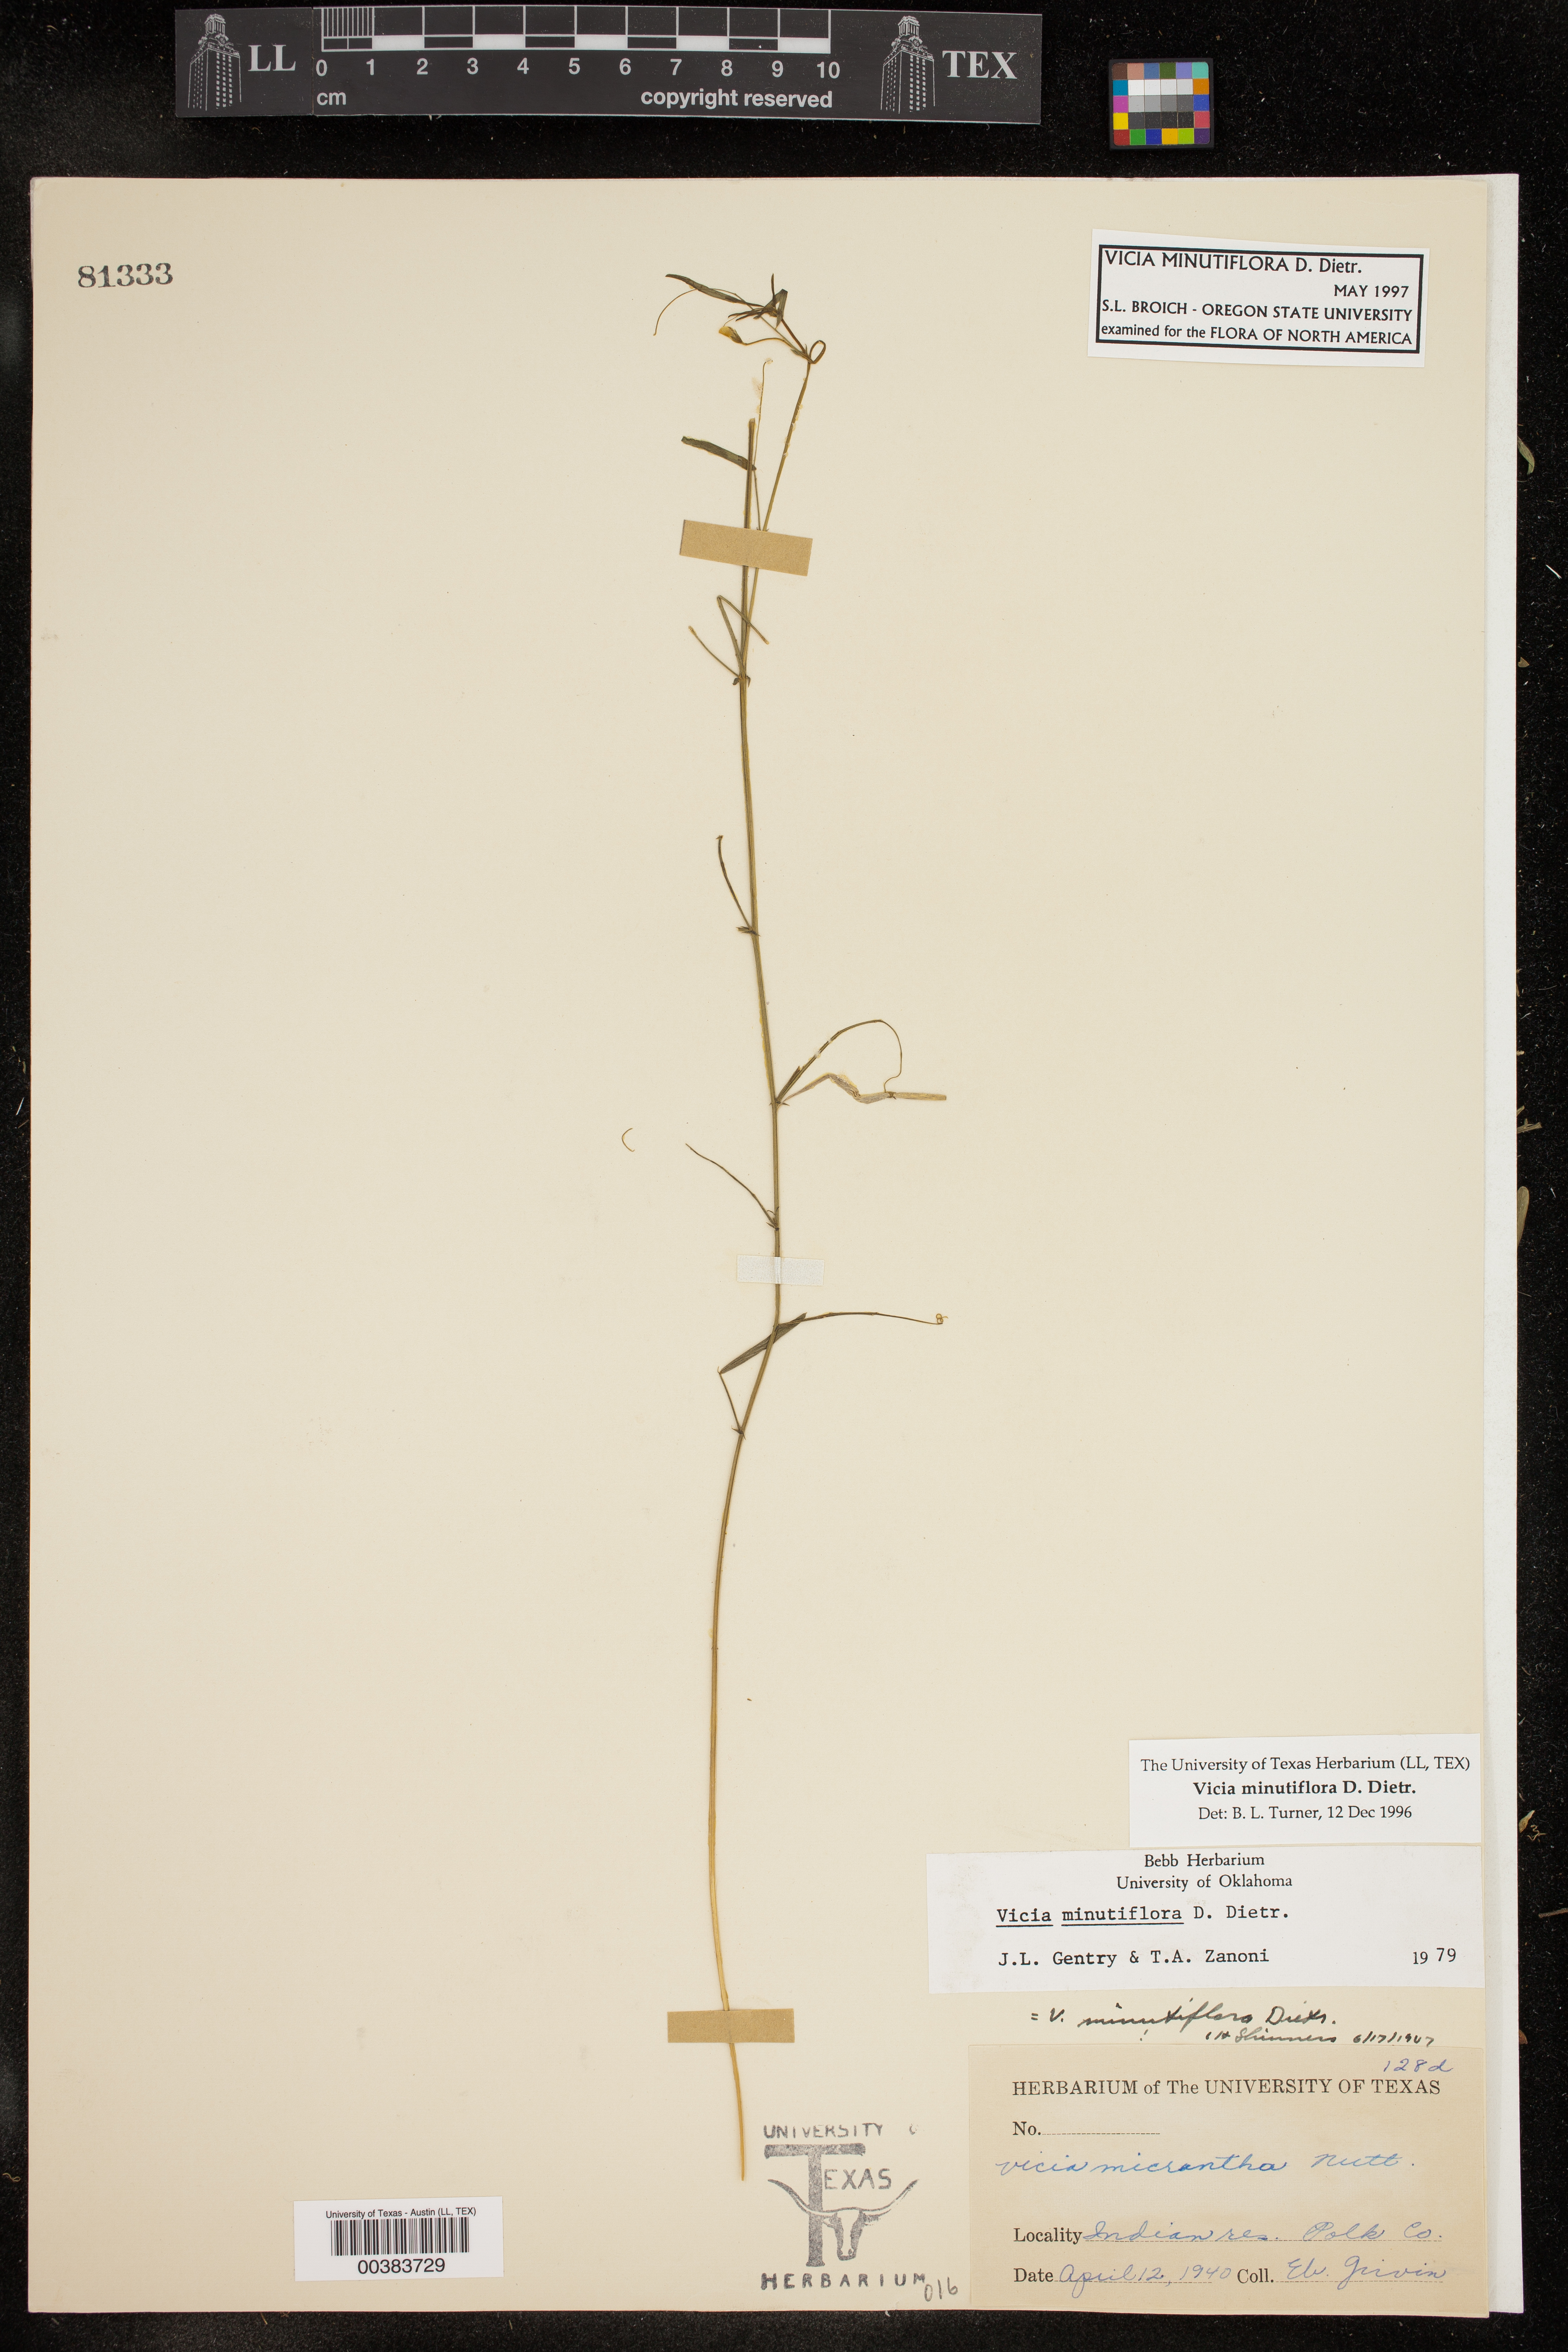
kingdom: Plantae
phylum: Tracheophyta
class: Magnoliopsida
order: Fabales
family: Fabaceae
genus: Vicia
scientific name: Vicia minutiflora
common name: Pygmy-flower vetch
